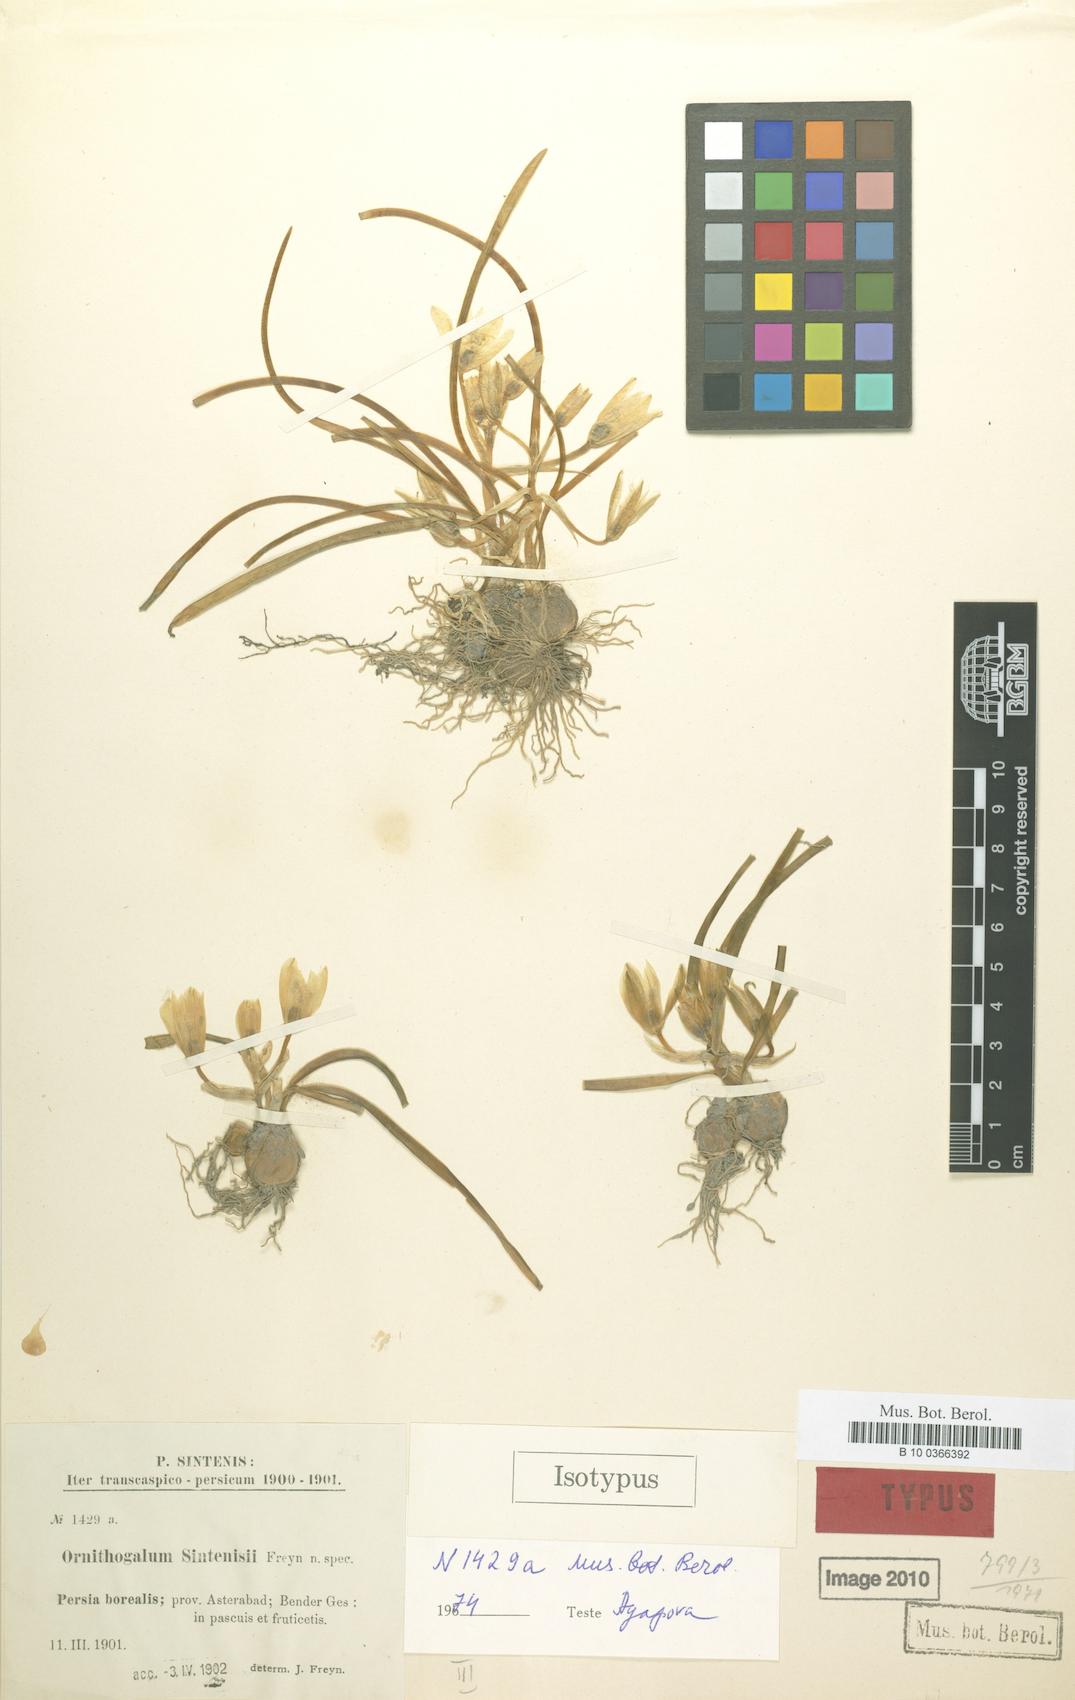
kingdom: Plantae
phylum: Tracheophyta
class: Liliopsida
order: Asparagales
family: Asparagaceae
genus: Ornithogalum
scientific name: Ornithogalum sintenisii
